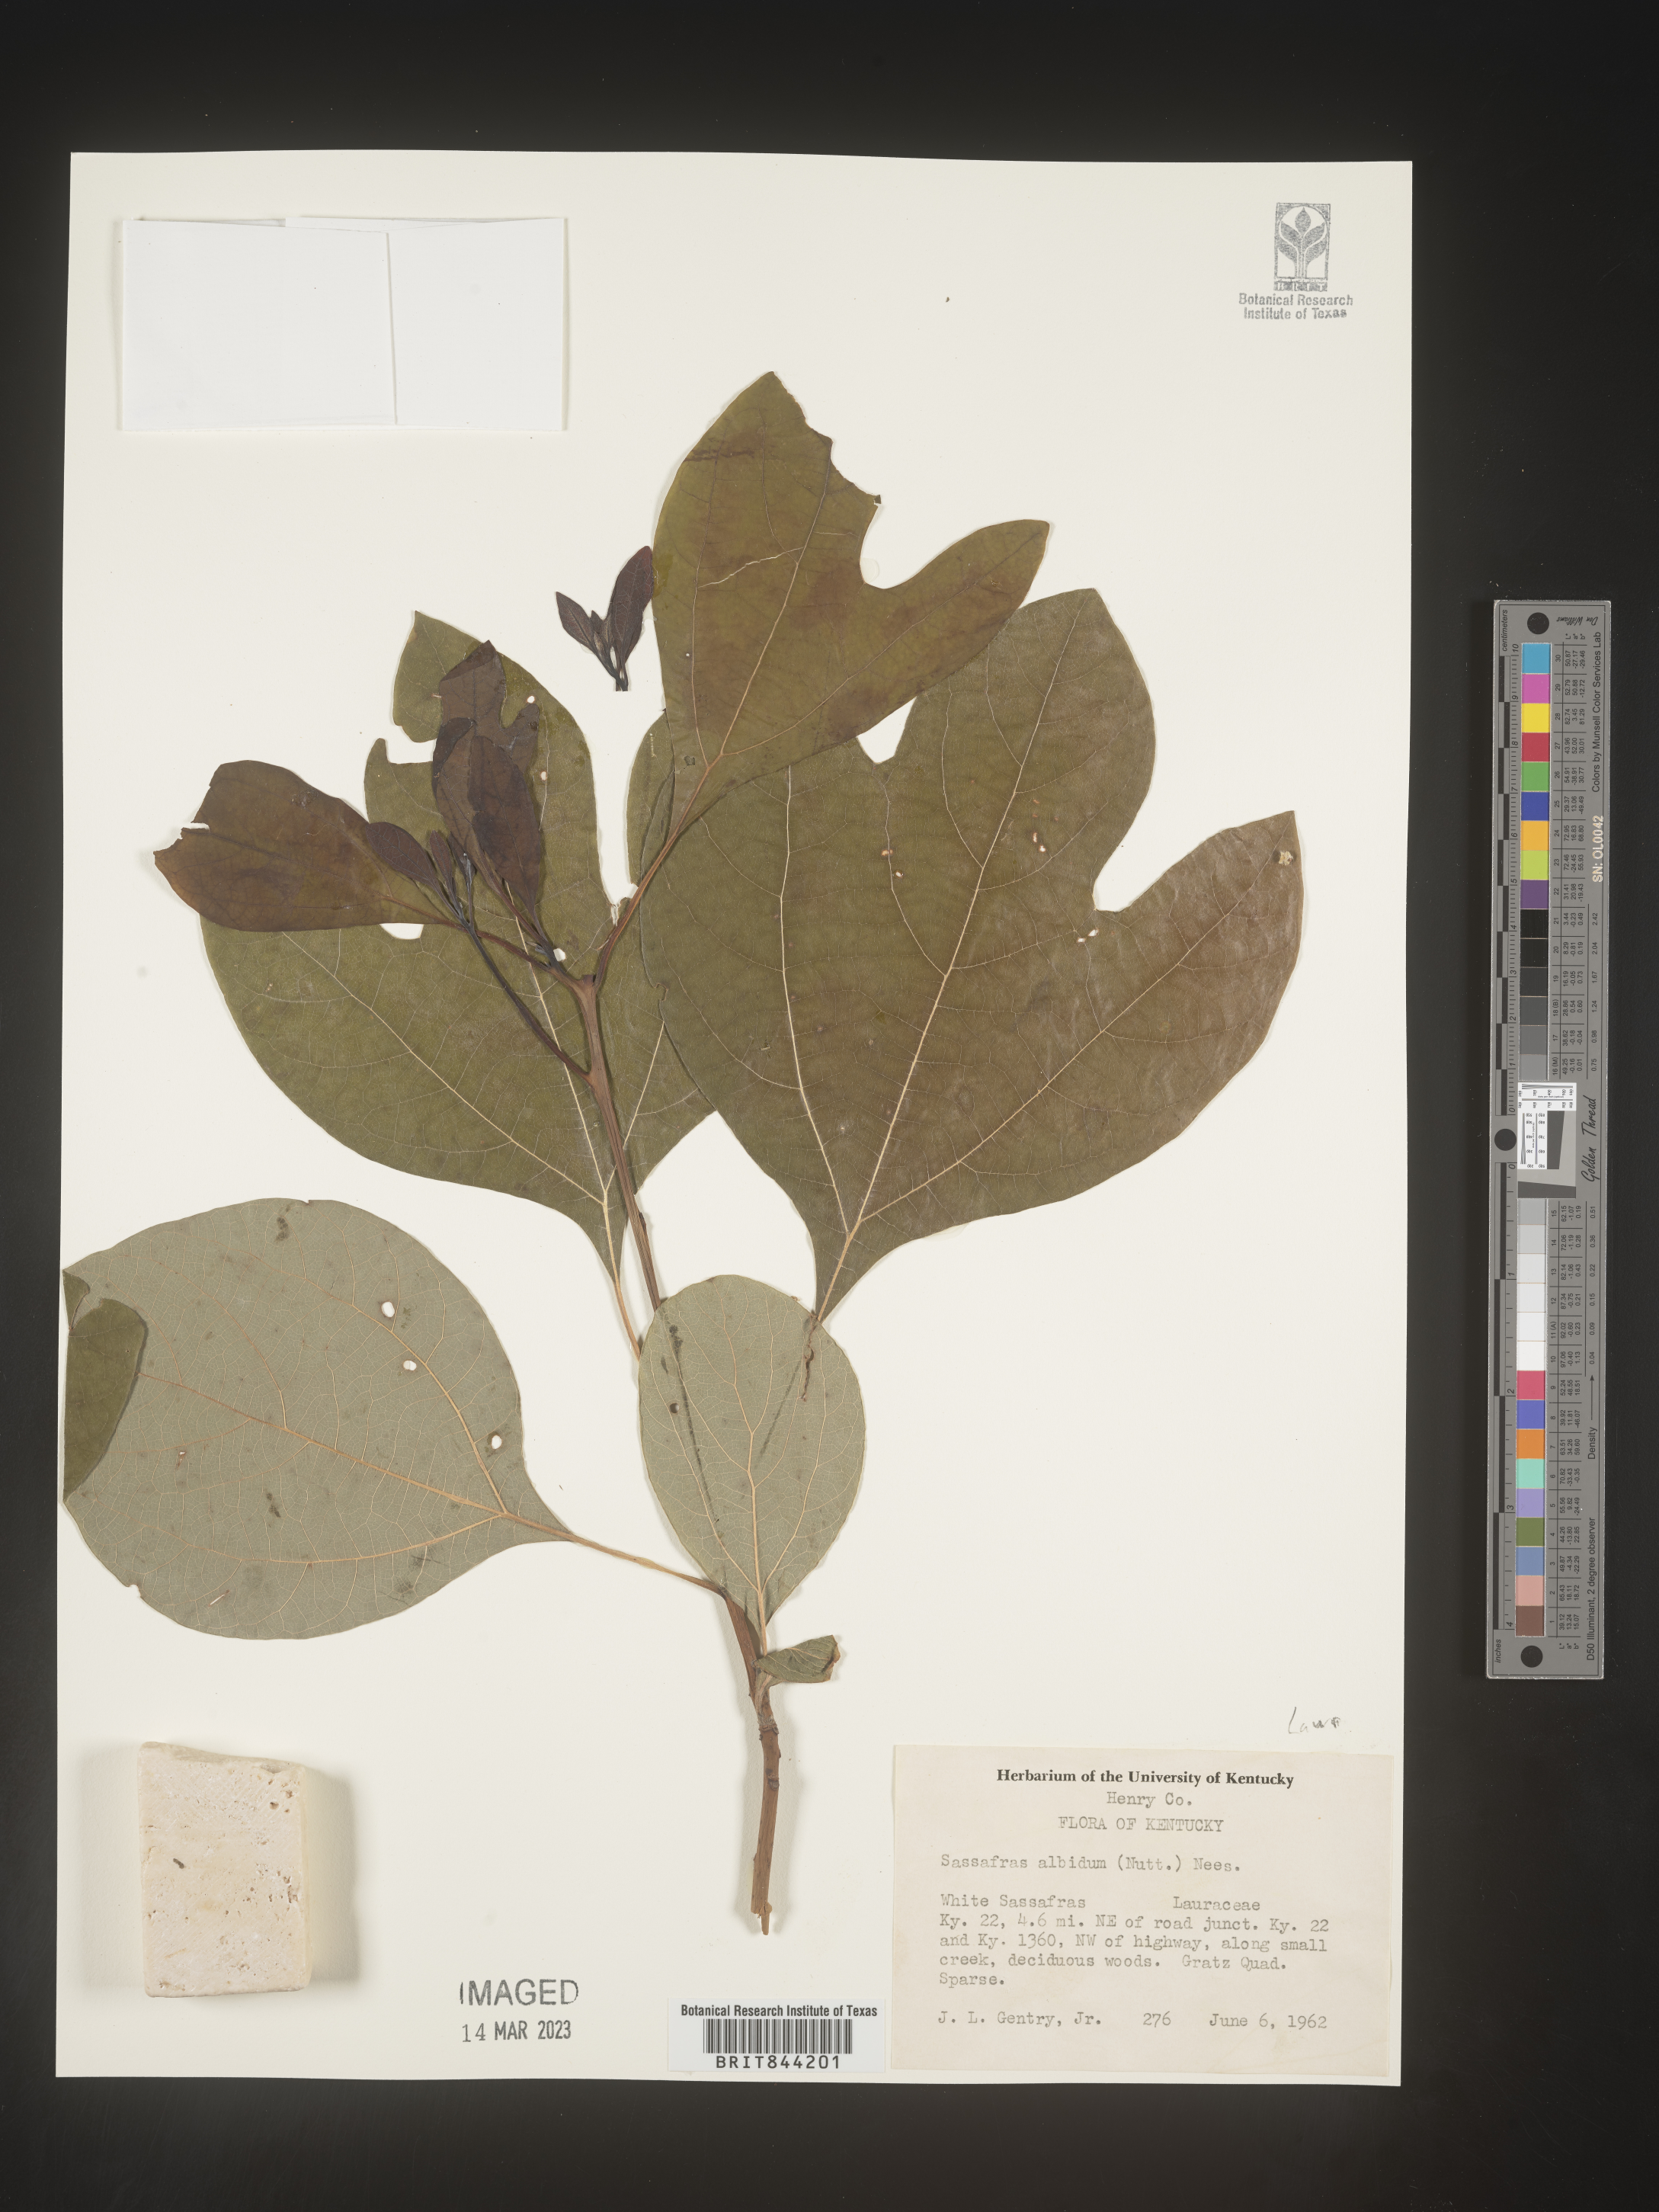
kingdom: Plantae
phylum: Tracheophyta
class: Magnoliopsida
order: Laurales
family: Lauraceae
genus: Sassafras
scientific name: Sassafras albidum
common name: Sassafras
